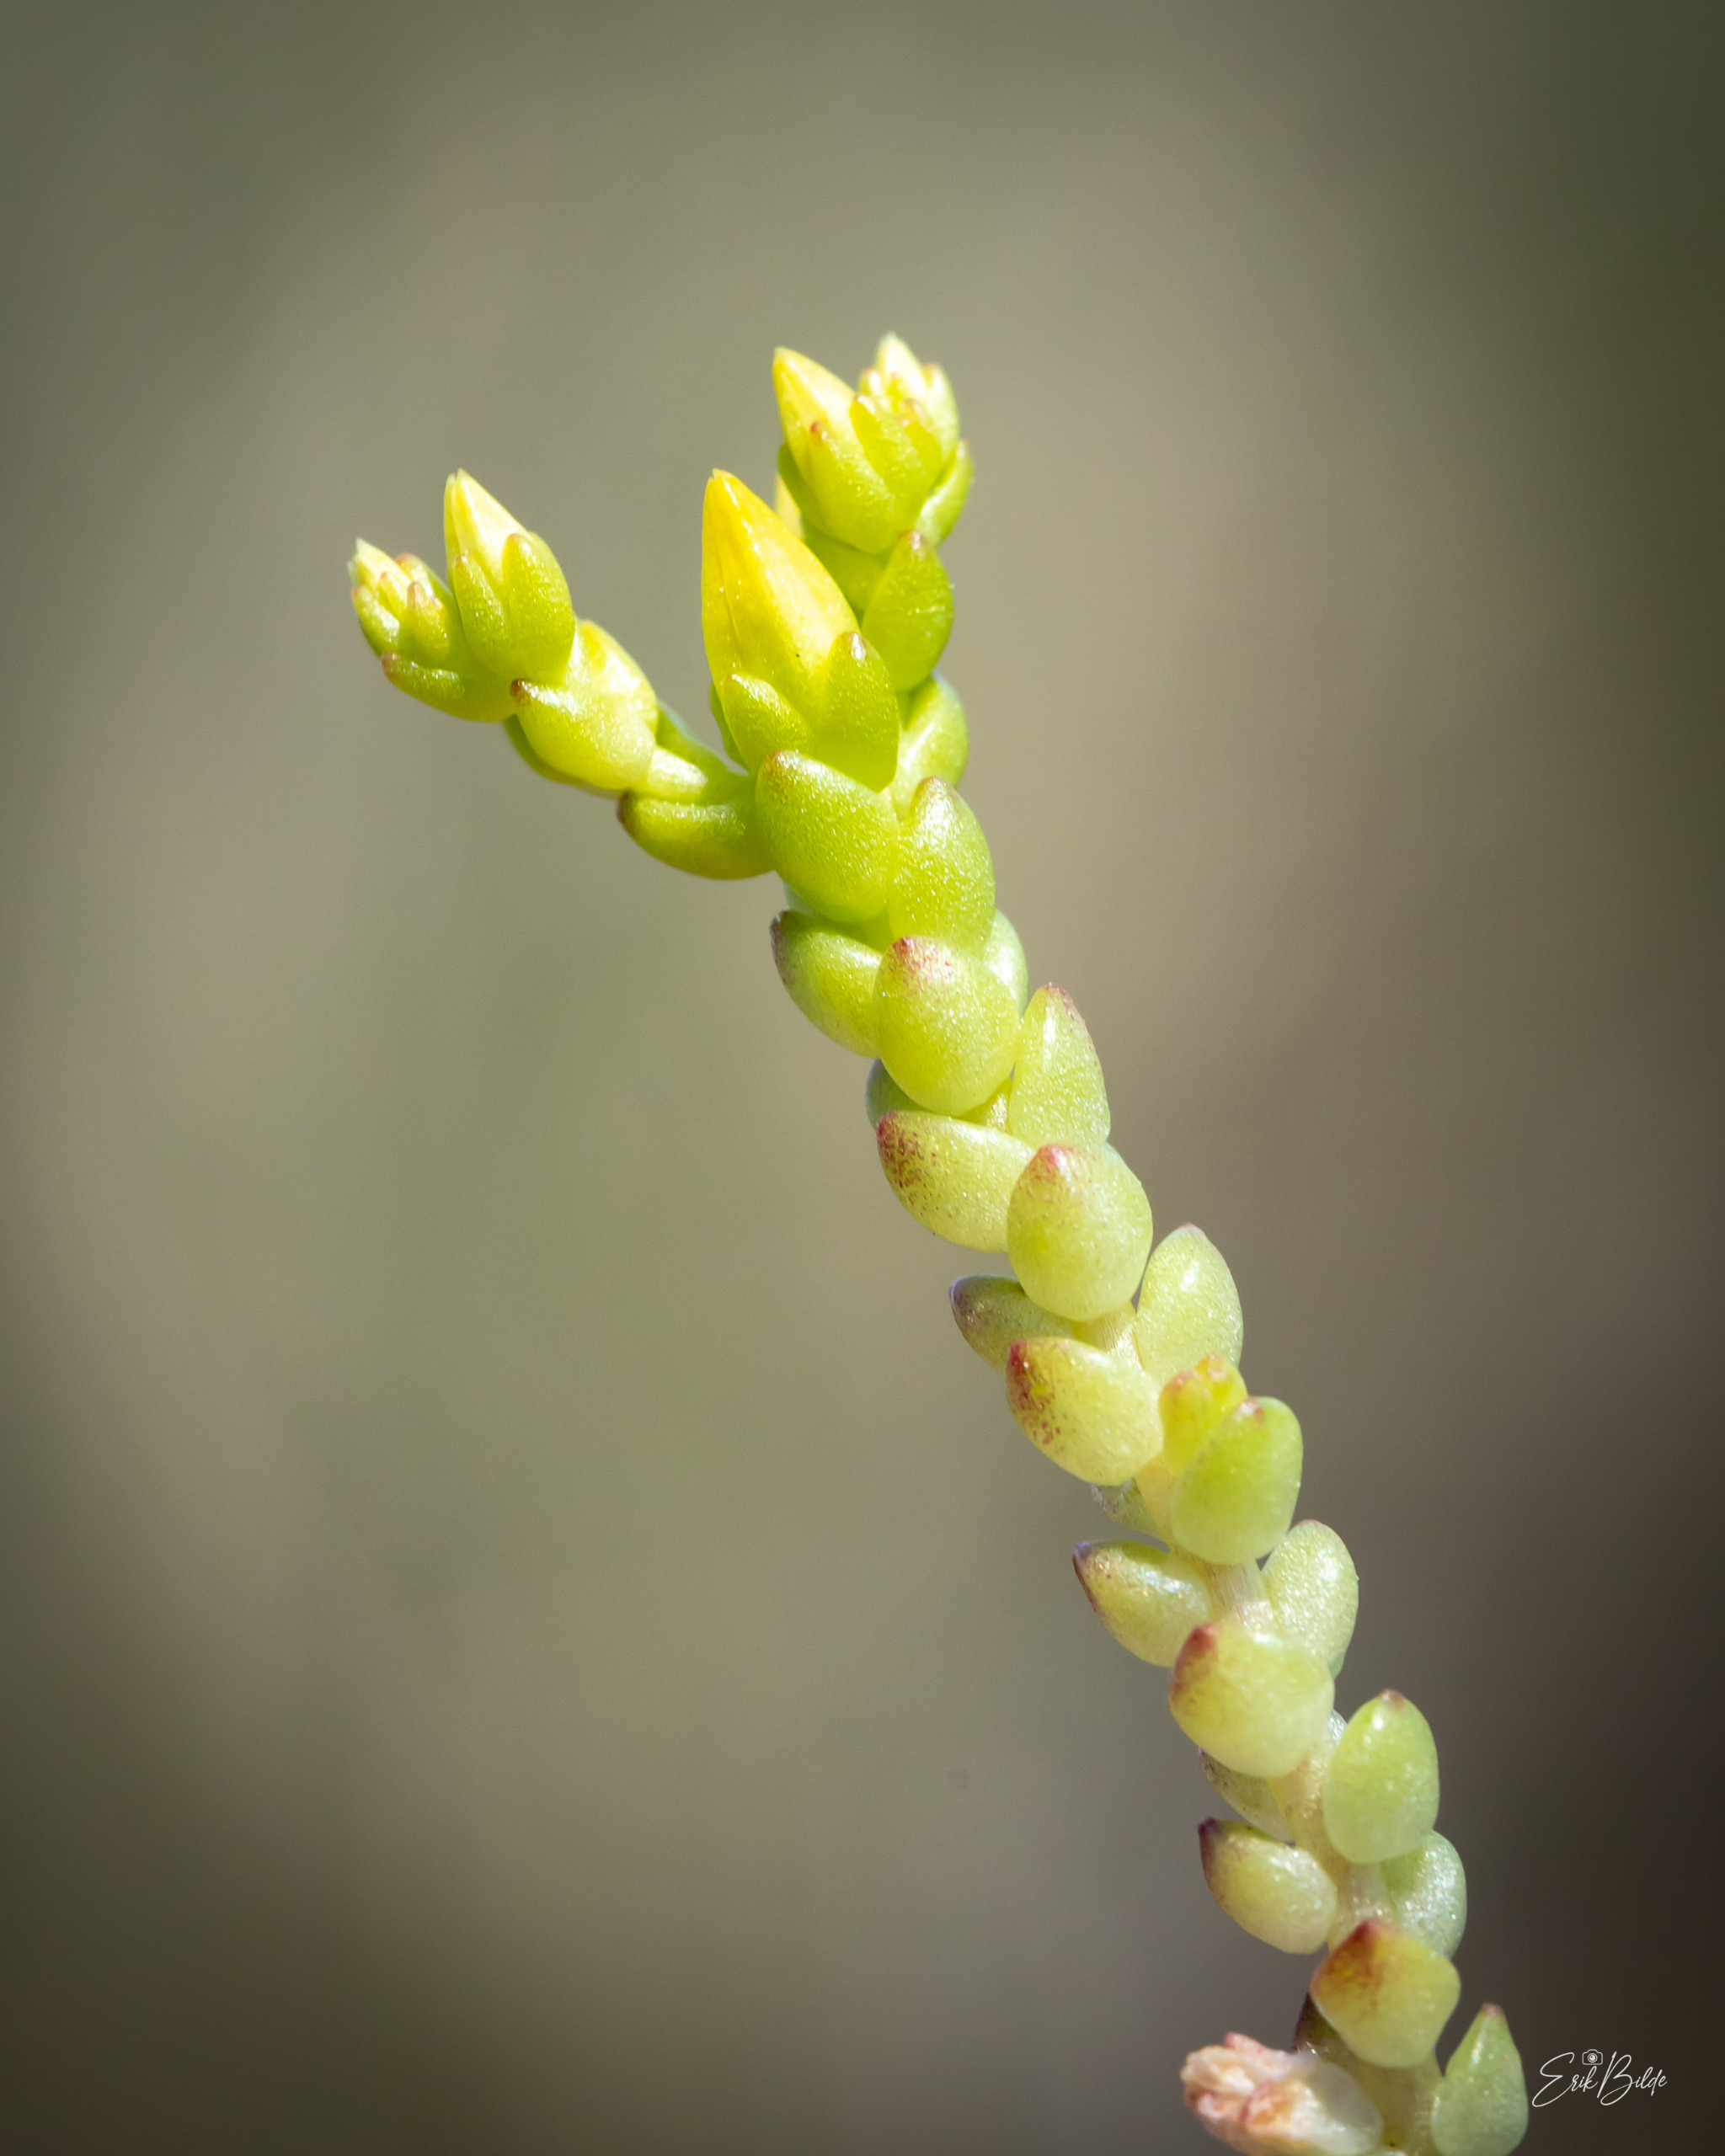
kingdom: Plantae
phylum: Tracheophyta
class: Magnoliopsida
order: Saxifragales
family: Crassulaceae
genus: Sedum
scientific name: Sedum acre
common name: Bidende stenurt
